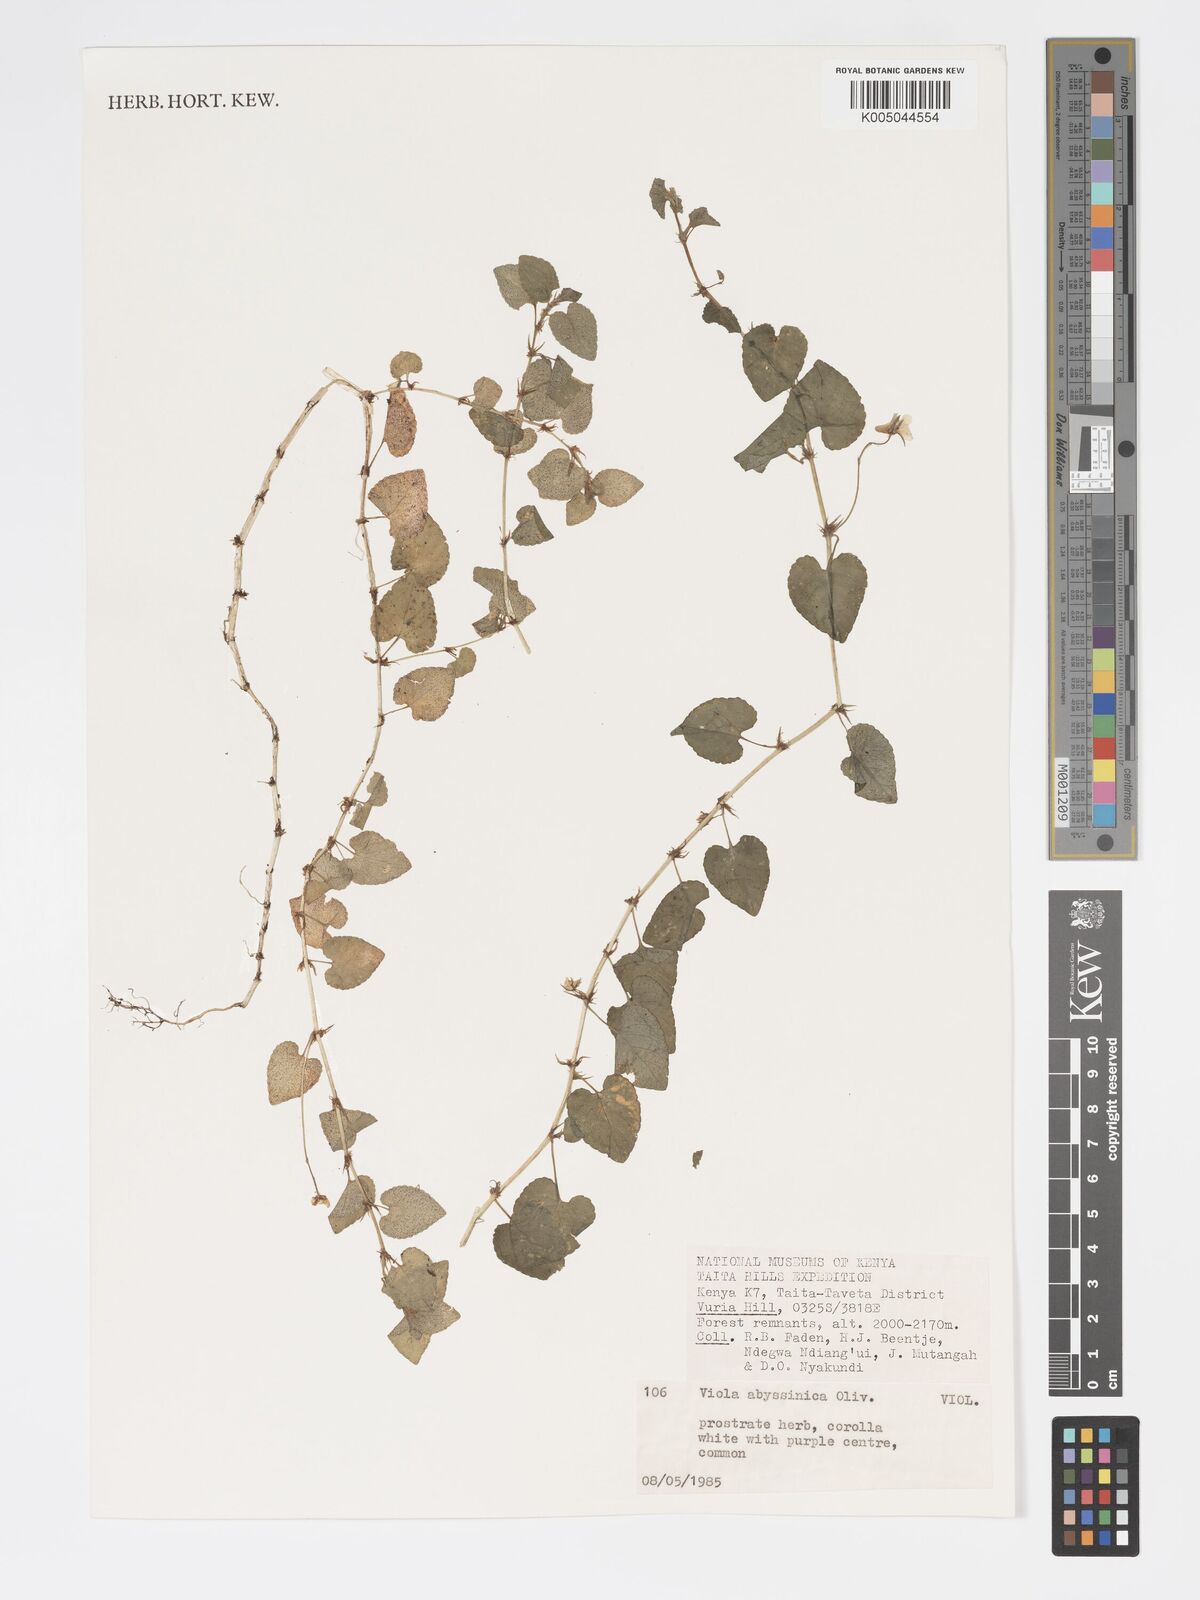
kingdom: Plantae
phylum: Tracheophyta
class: Magnoliopsida
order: Malpighiales
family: Violaceae
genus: Viola
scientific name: Viola abyssinica
